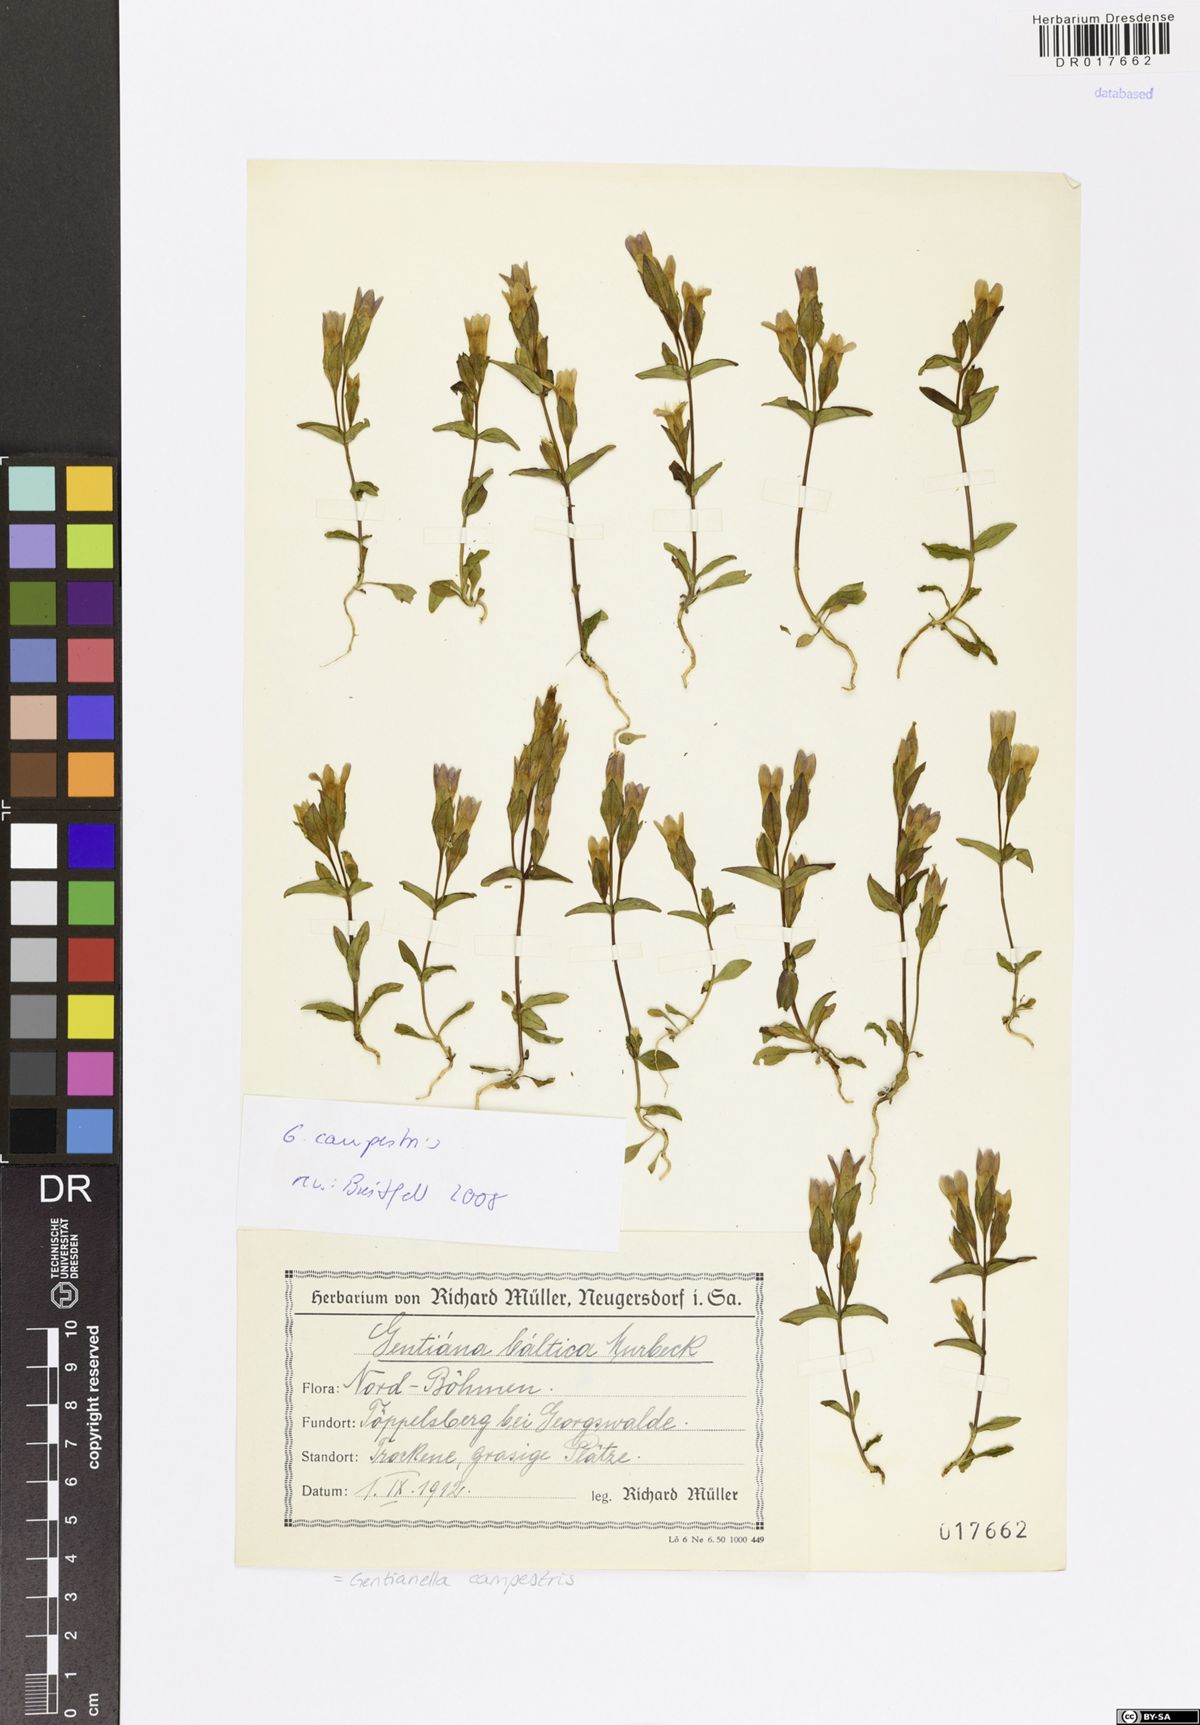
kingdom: Plantae
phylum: Tracheophyta
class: Magnoliopsida
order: Gentianales
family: Gentianaceae
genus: Gentianella
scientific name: Gentianella campestris
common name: Field gentian
